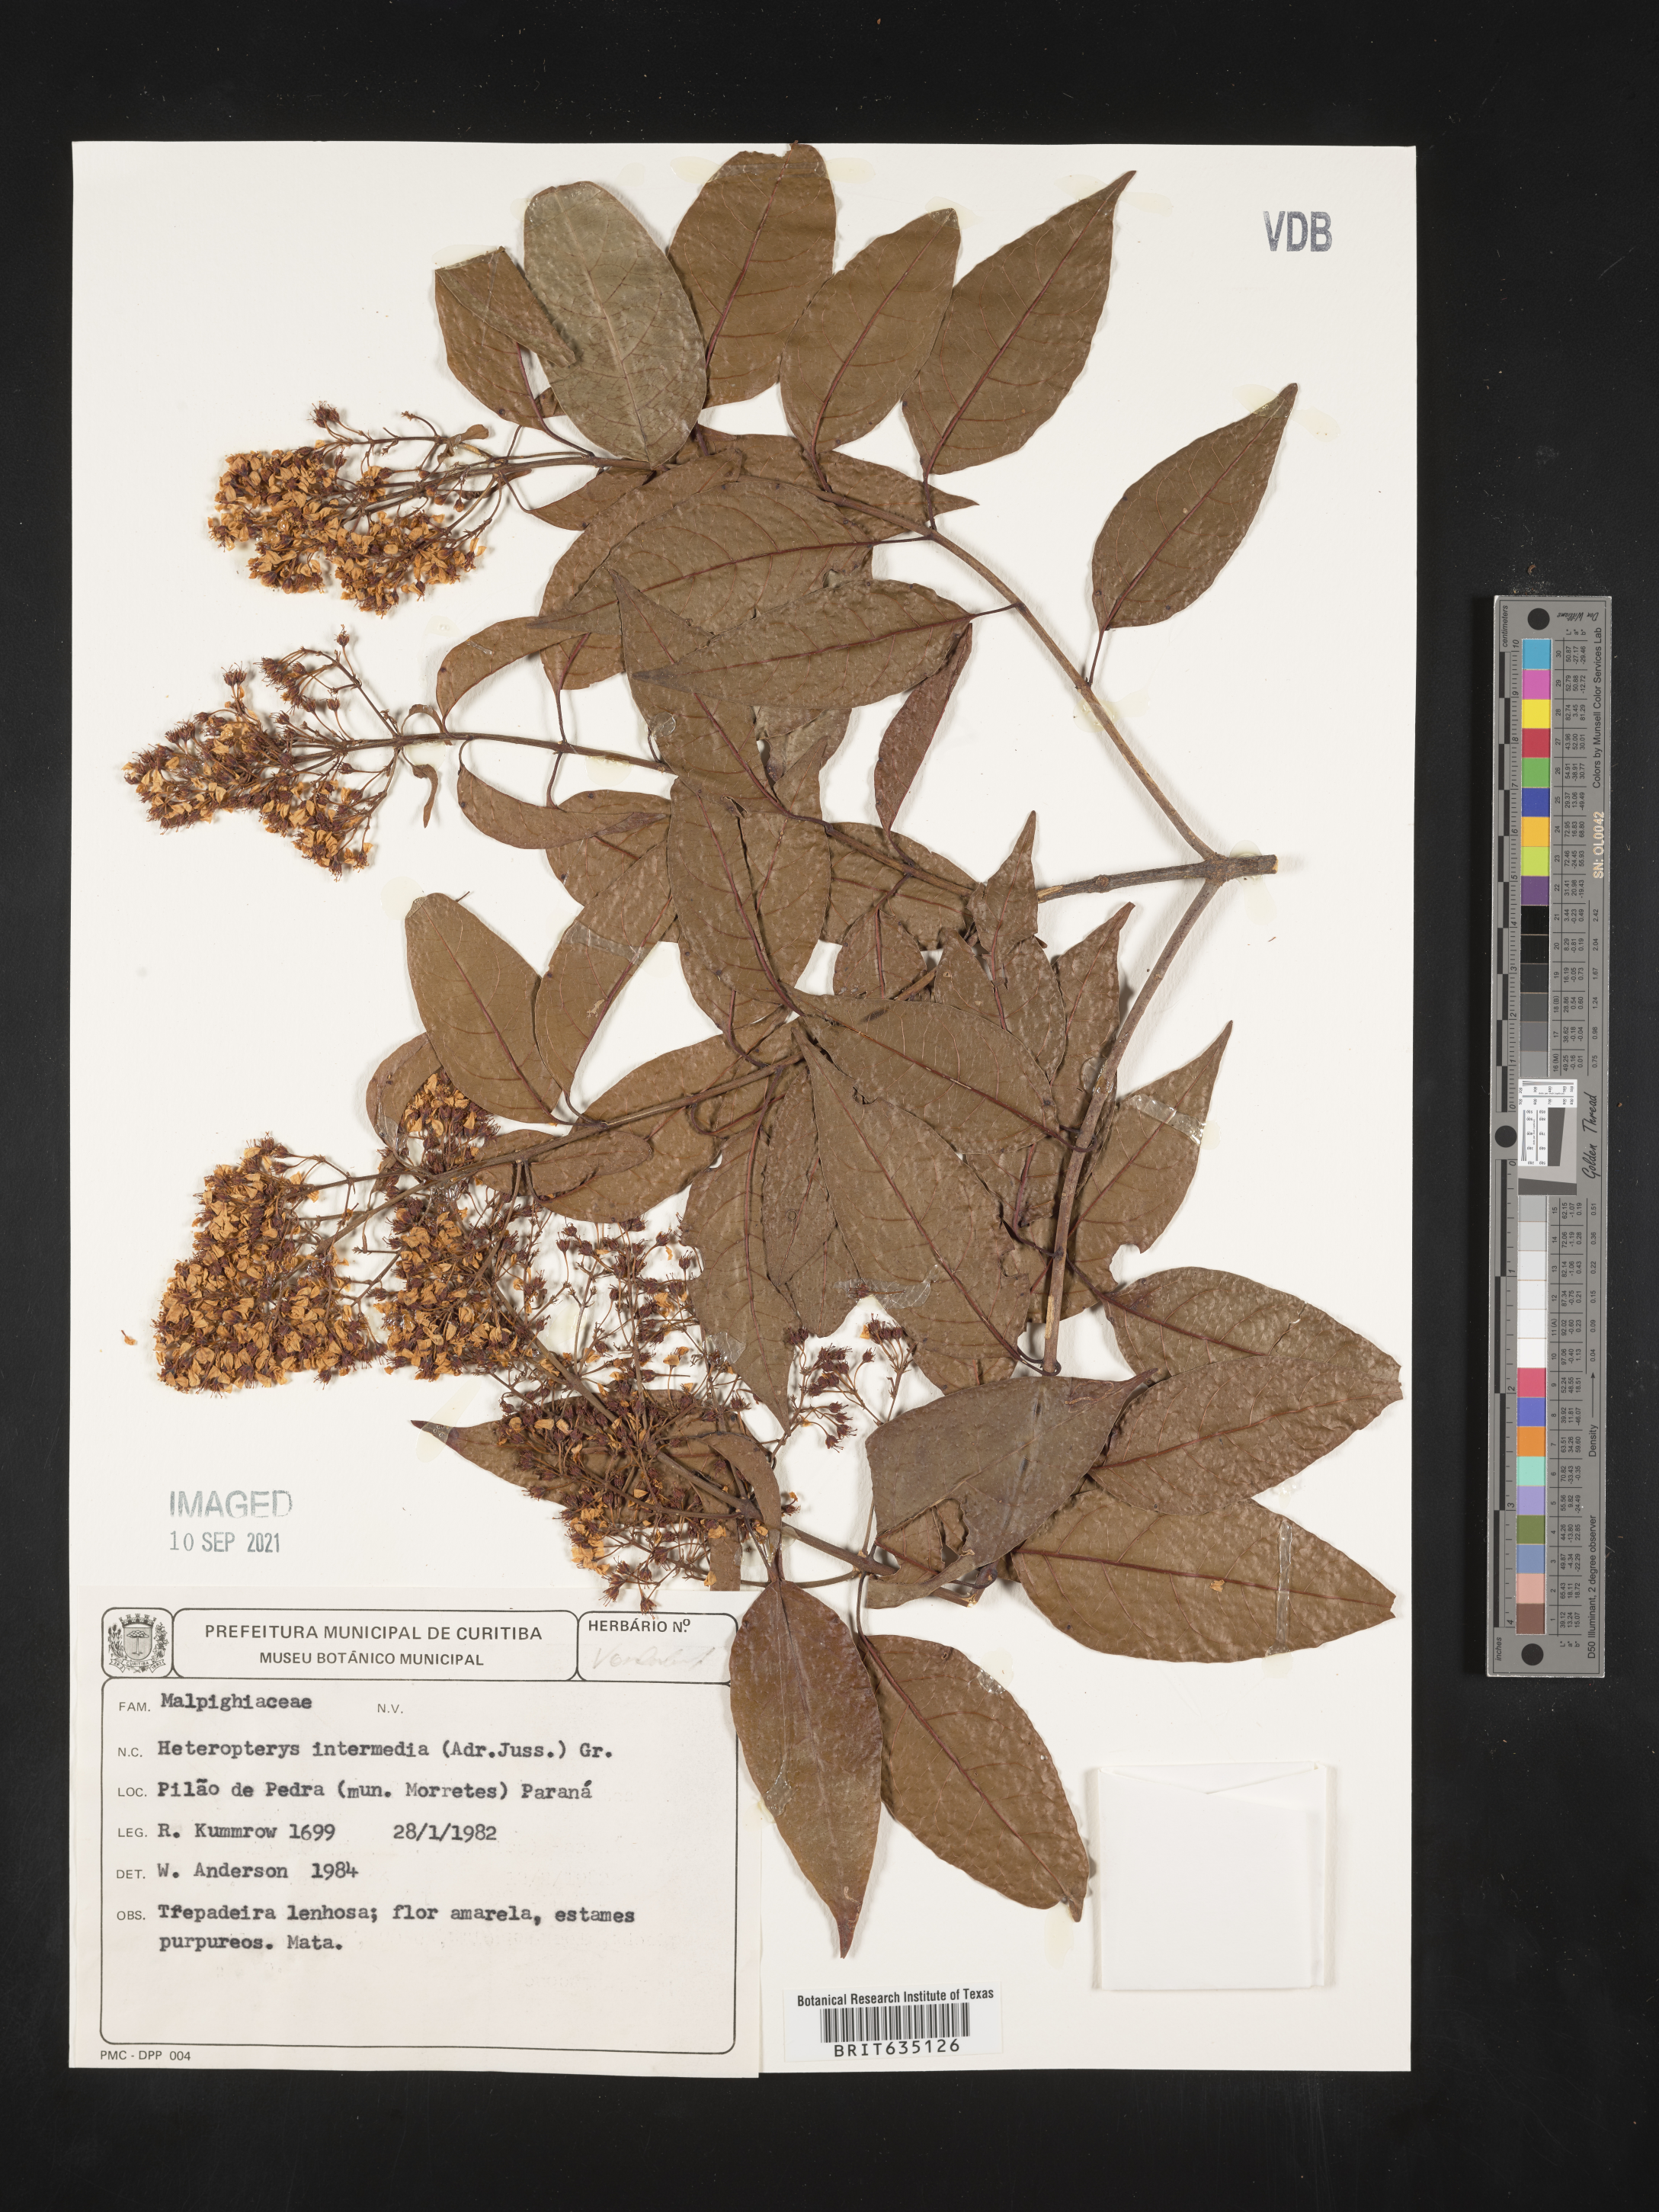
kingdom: Plantae
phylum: Tracheophyta
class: Polypodiopsida
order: Polypodiales
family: Pteridaceae
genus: Heteropteris
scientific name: Heteropteris
